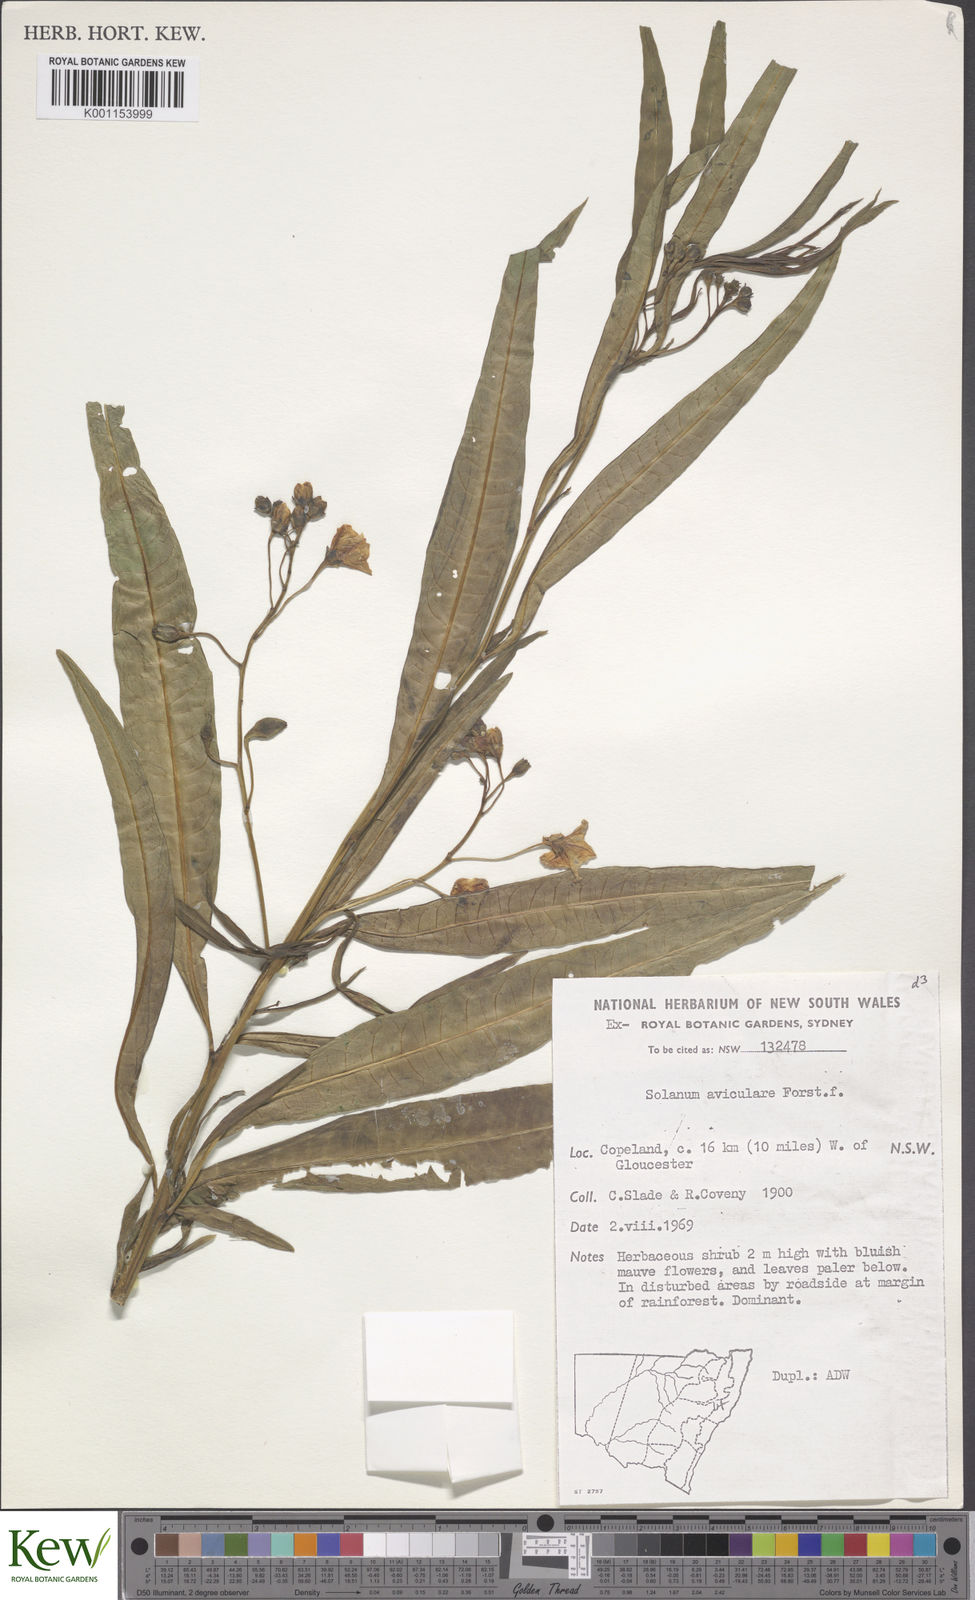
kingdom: Plantae
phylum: Tracheophyta
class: Magnoliopsida
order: Solanales
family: Solanaceae
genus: Solanum
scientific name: Solanum aviculare
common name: New zealand nightshade
